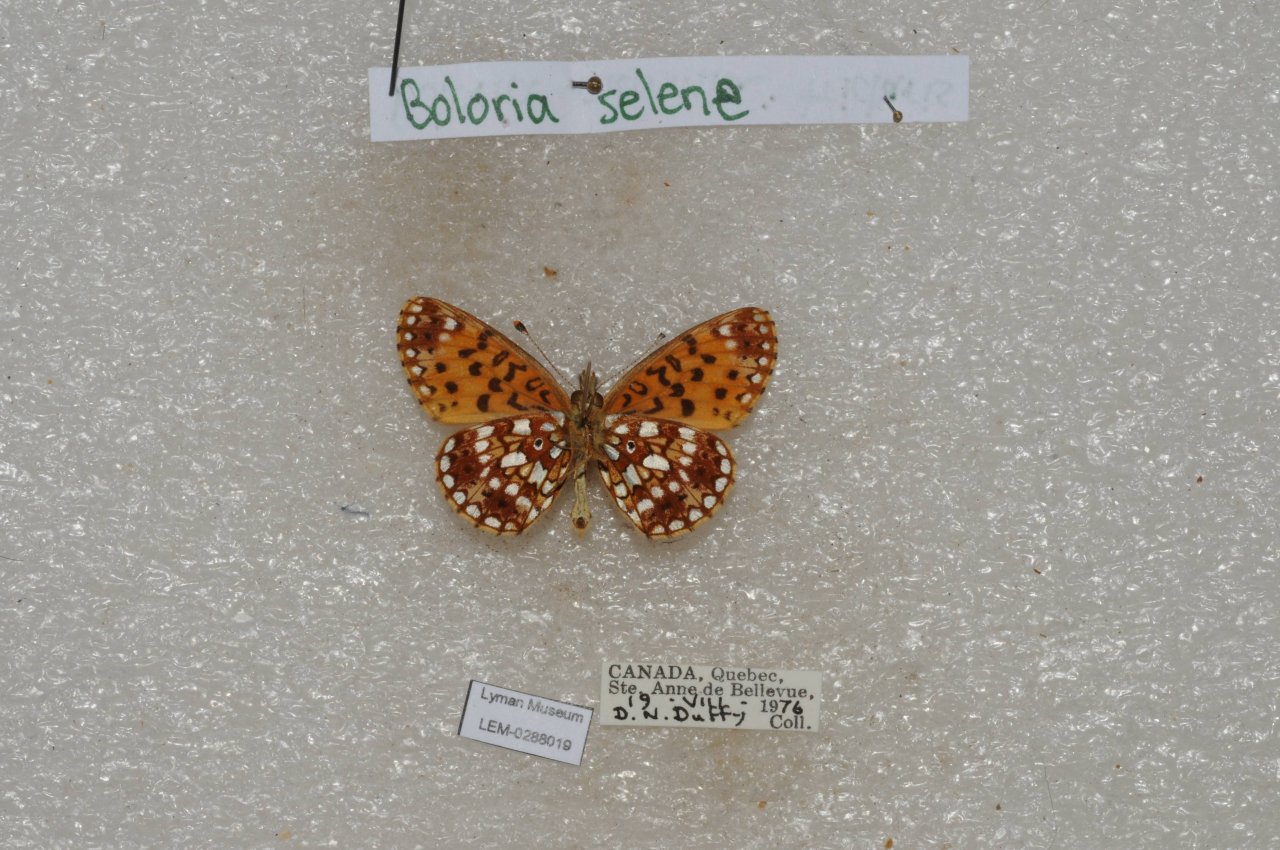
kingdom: Animalia
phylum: Arthropoda
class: Insecta
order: Lepidoptera
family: Nymphalidae
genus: Boloria
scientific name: Boloria selene
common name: Silver-bordered Fritillary
